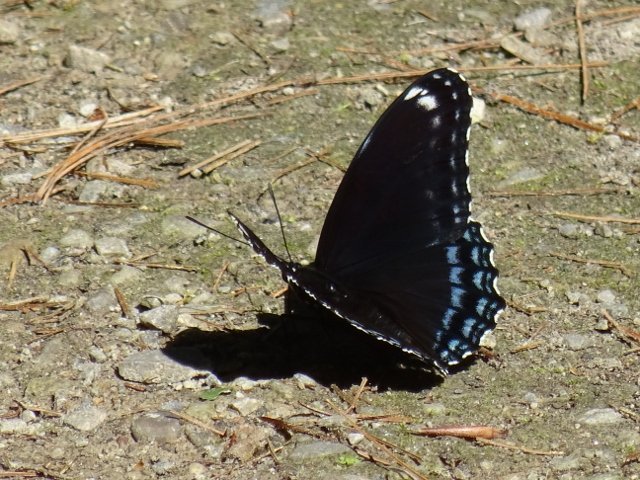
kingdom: Animalia
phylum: Arthropoda
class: Insecta
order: Lepidoptera
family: Nymphalidae
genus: Limenitis
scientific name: Limenitis astyanax
